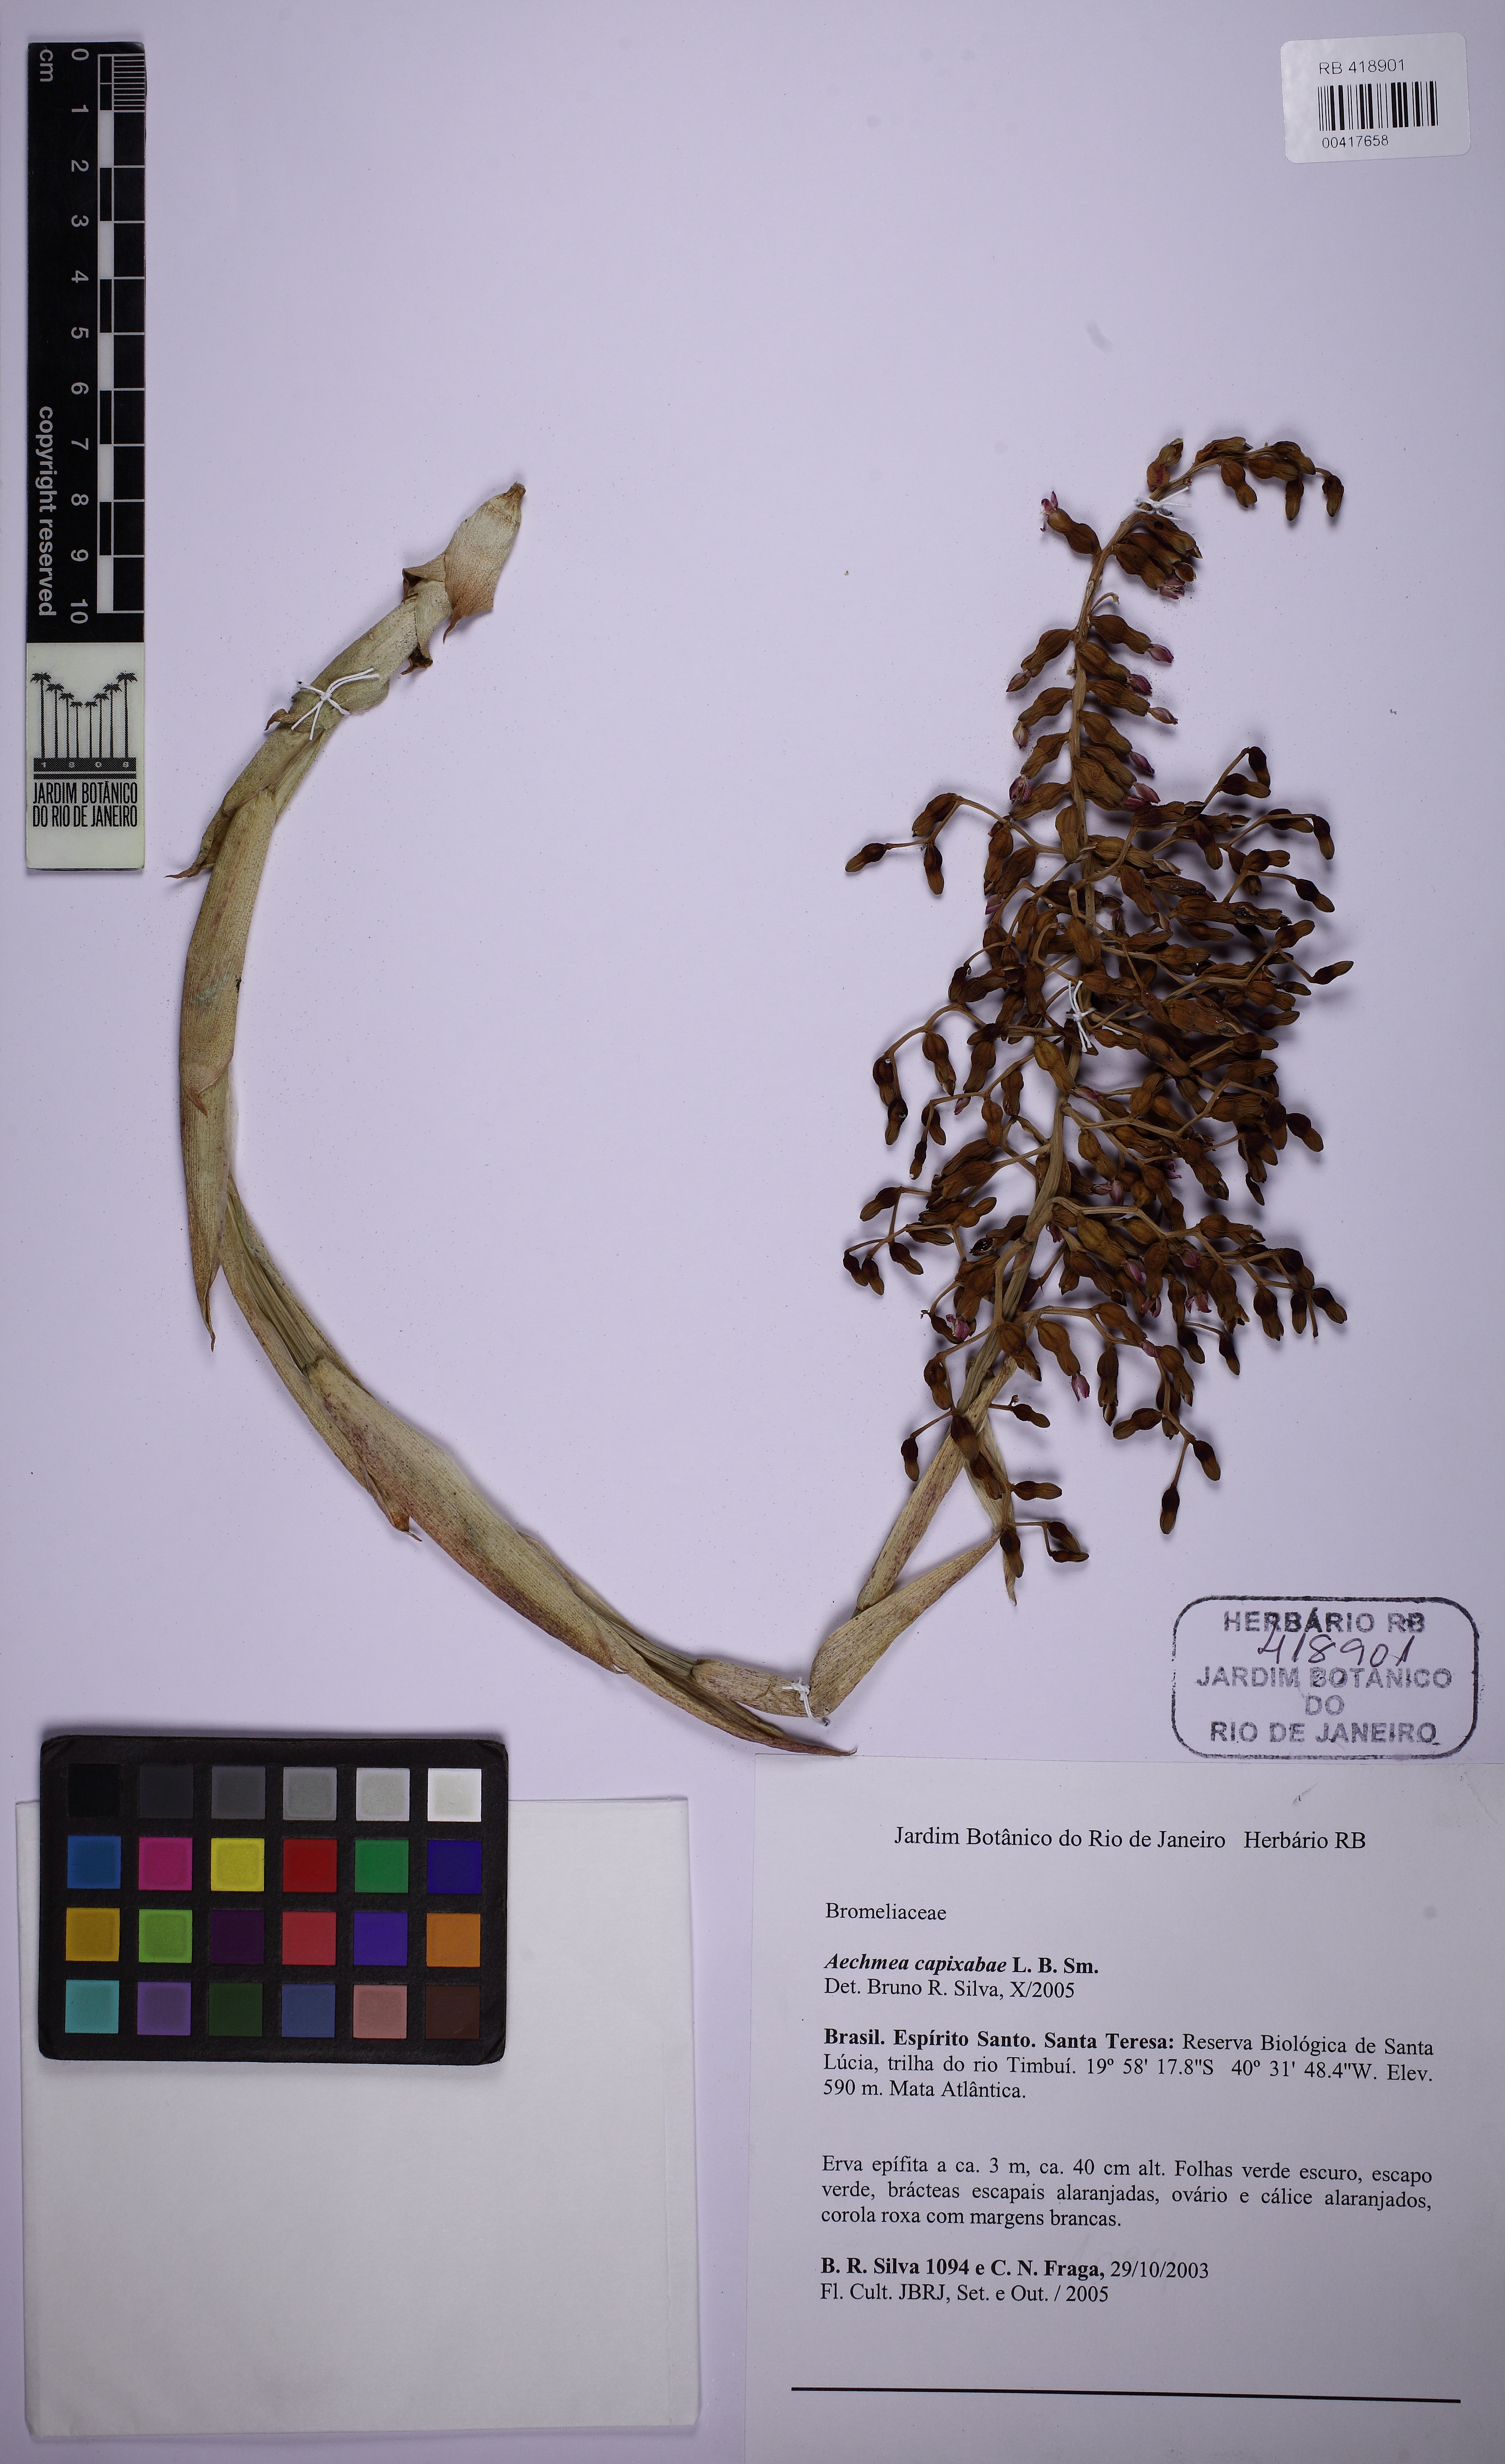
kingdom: Plantae
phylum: Tracheophyta
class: Liliopsida
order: Poales
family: Bromeliaceae
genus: Aechmea
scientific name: Aechmea capixabae
